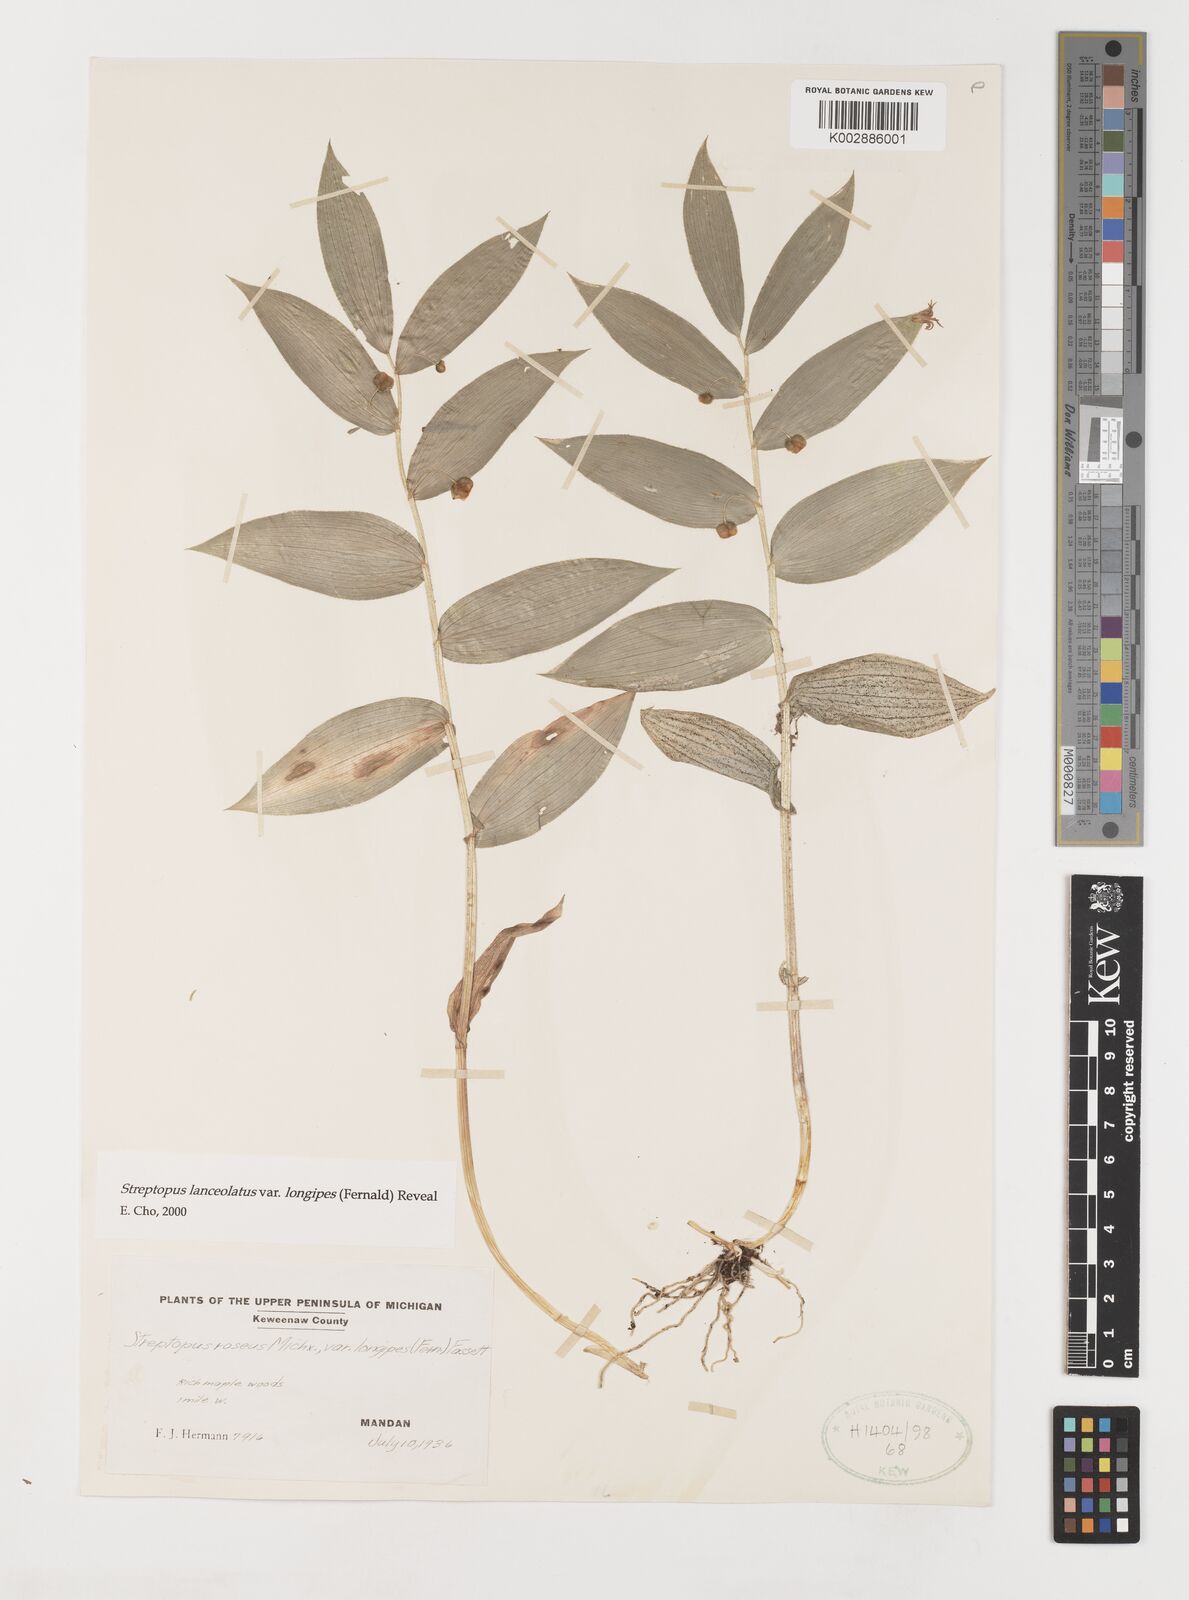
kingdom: Plantae
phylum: Tracheophyta
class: Liliopsida
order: Liliales
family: Liliaceae
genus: Streptopus
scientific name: Streptopus lanceolatus
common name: Rose mandarin
